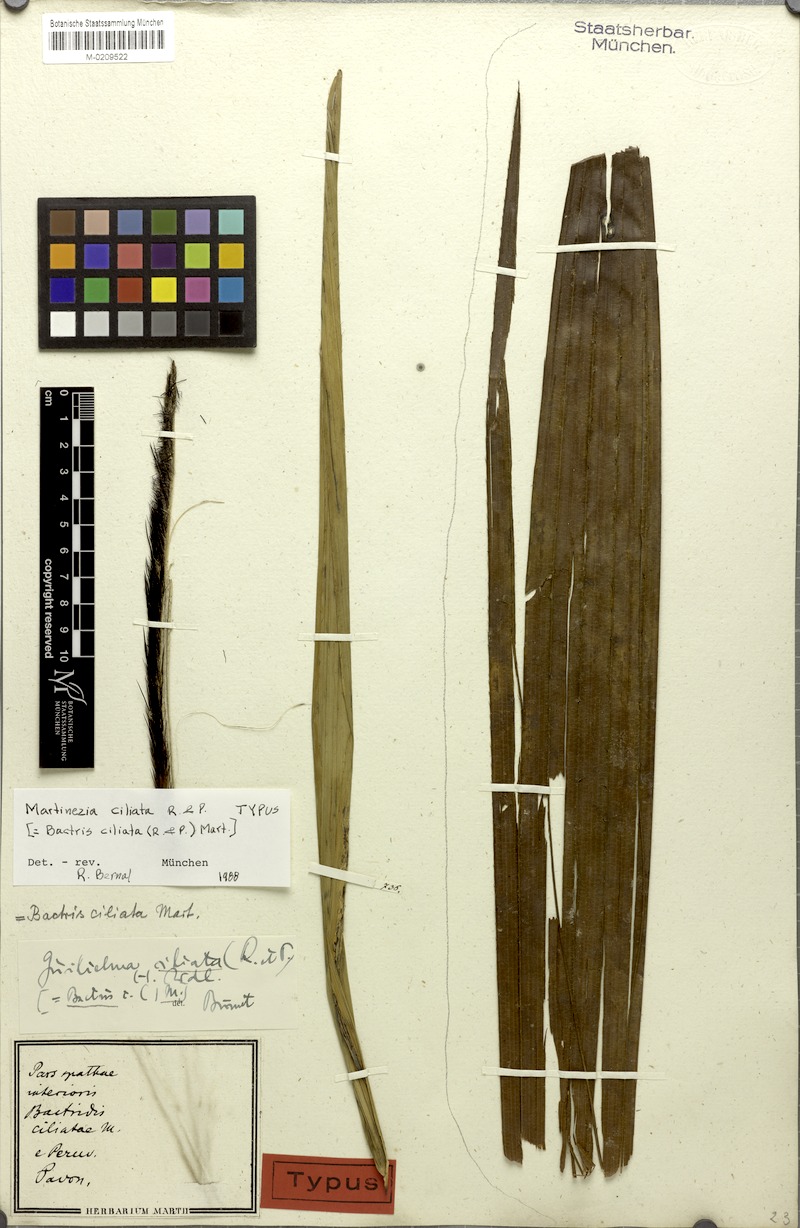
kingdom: Plantae
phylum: Tracheophyta
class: Liliopsida
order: Arecales
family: Arecaceae
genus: Bactris
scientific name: Bactris gasipaes
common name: Peach palm
